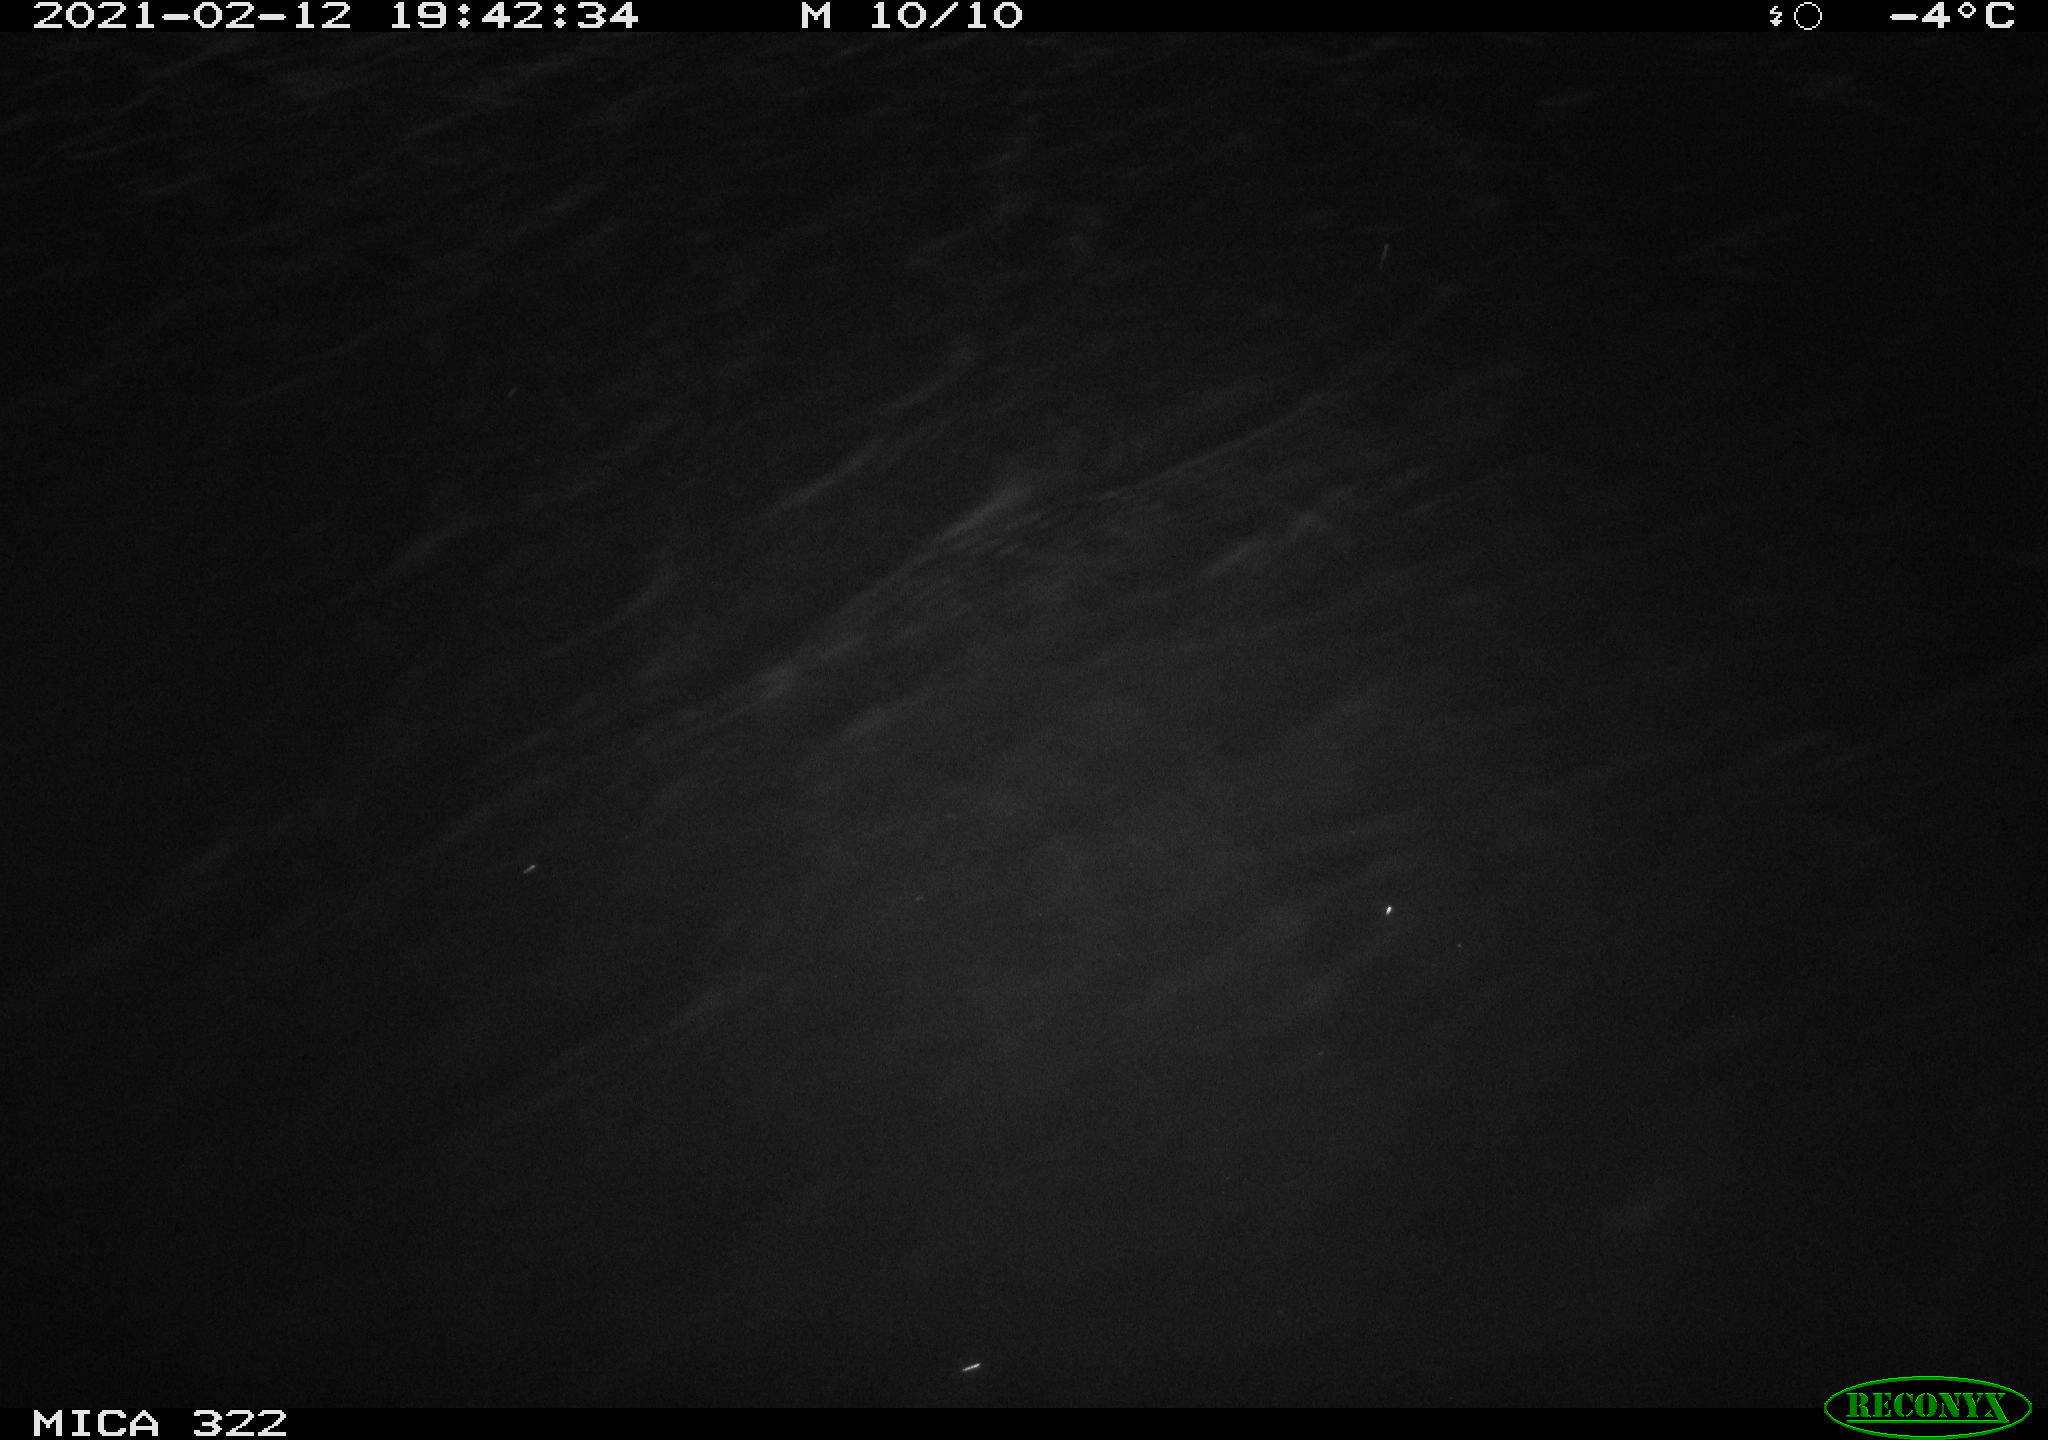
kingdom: Animalia
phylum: Chordata
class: Aves
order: Anseriformes
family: Anatidae
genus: Mareca
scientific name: Mareca strepera
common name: Gadwall
